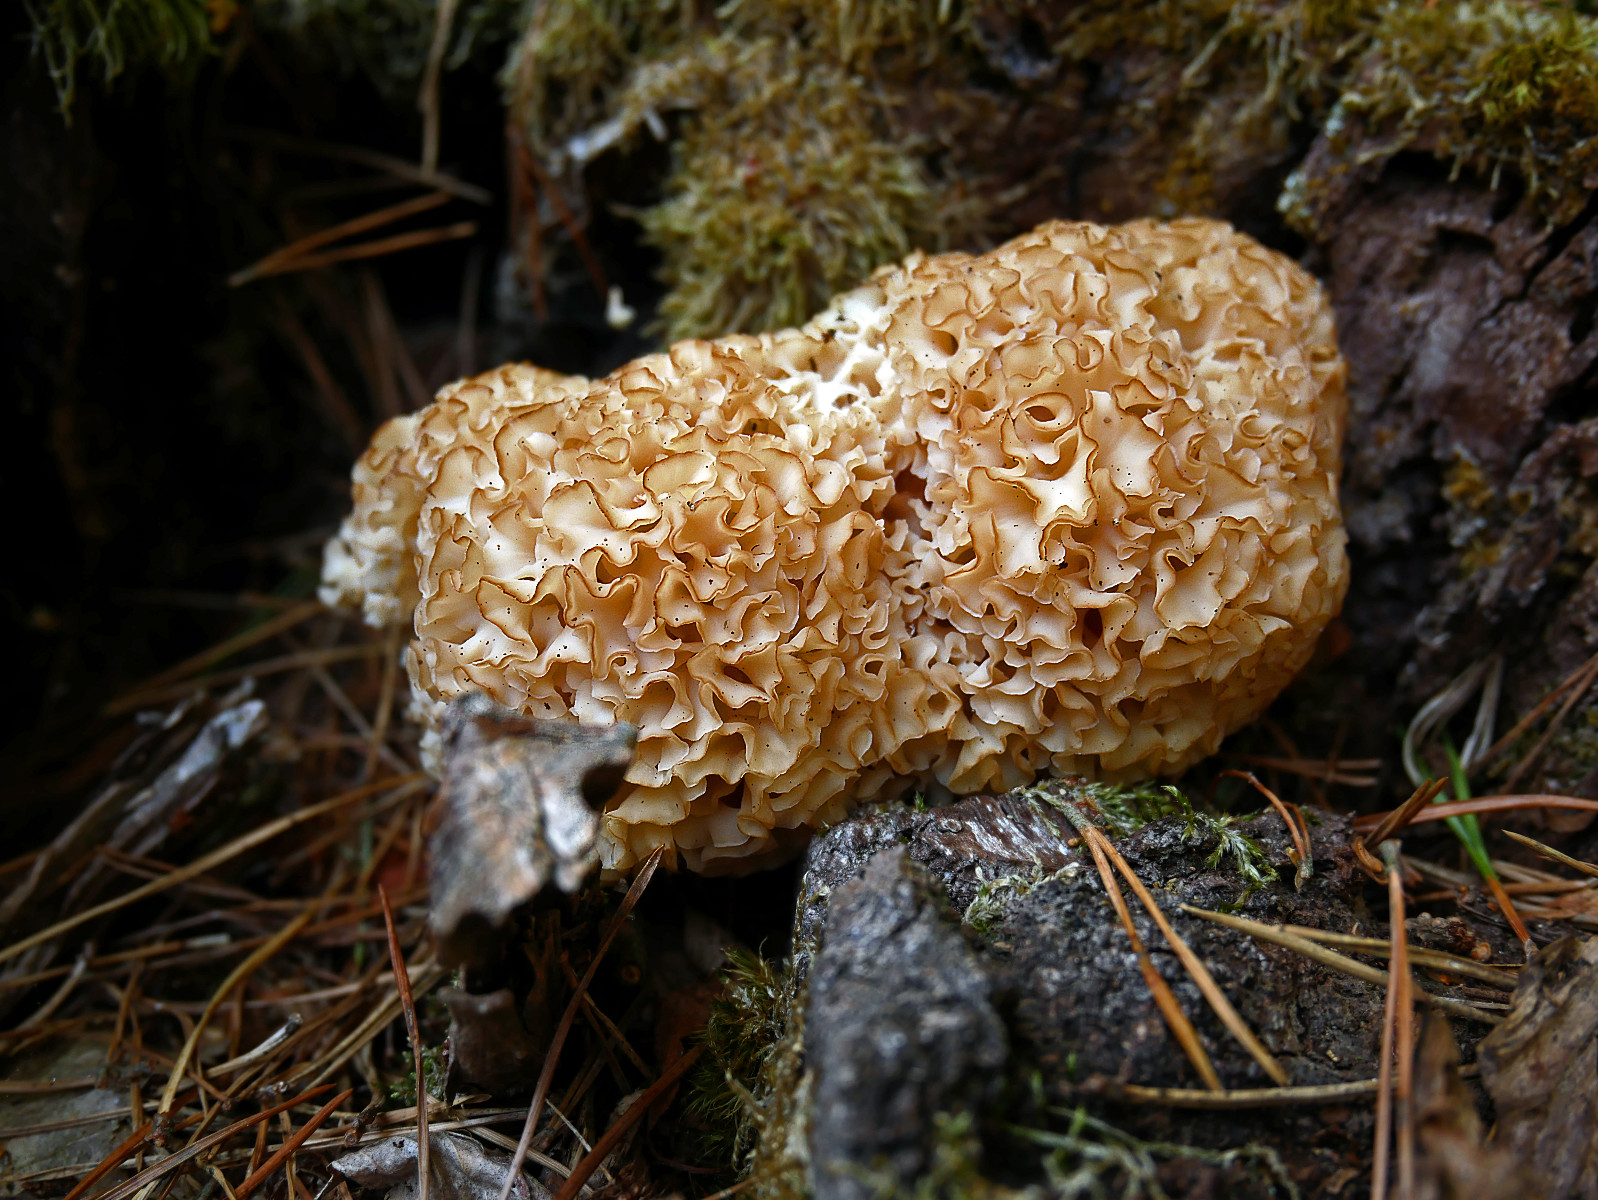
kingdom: Fungi
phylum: Basidiomycota
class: Agaricomycetes
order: Polyporales
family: Sparassidaceae
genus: Sparassis
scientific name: Sparassis crispa
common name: kruset blomkålssvamp
